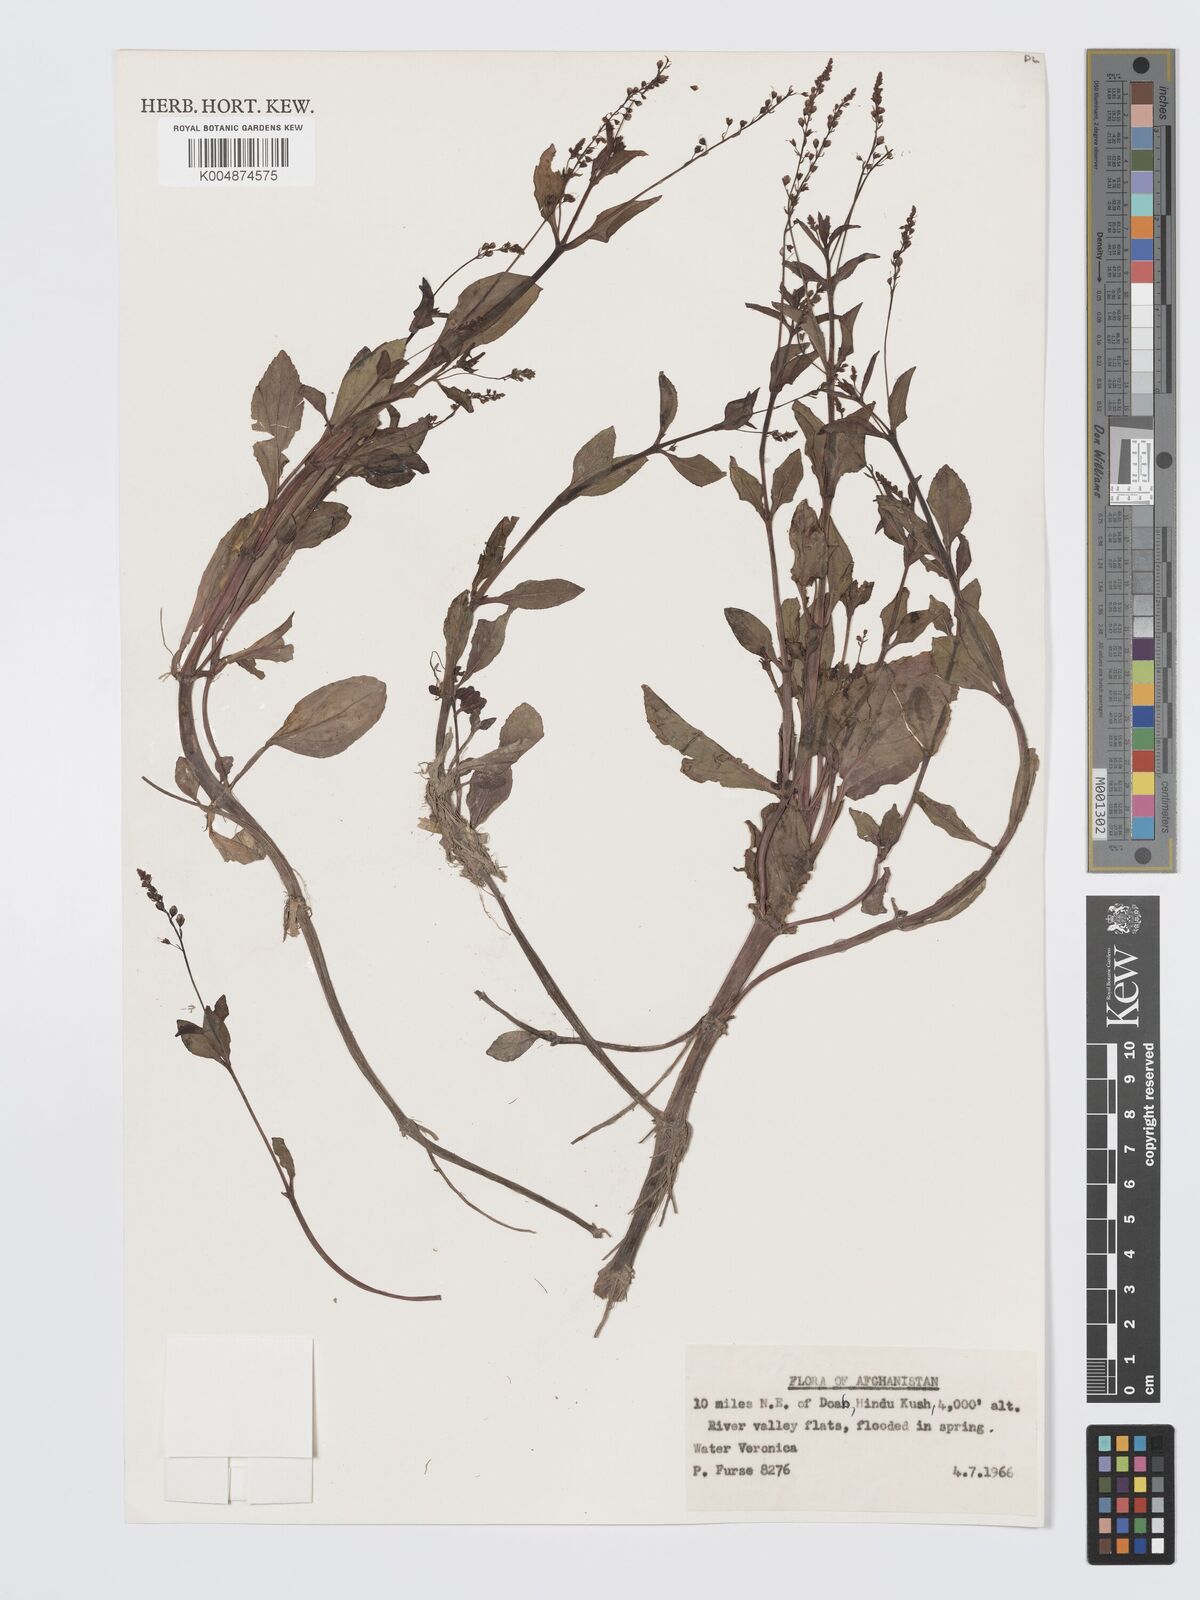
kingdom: Plantae
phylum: Tracheophyta
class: Magnoliopsida
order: Lamiales
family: Plantaginaceae
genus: Veronica
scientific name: Veronica
